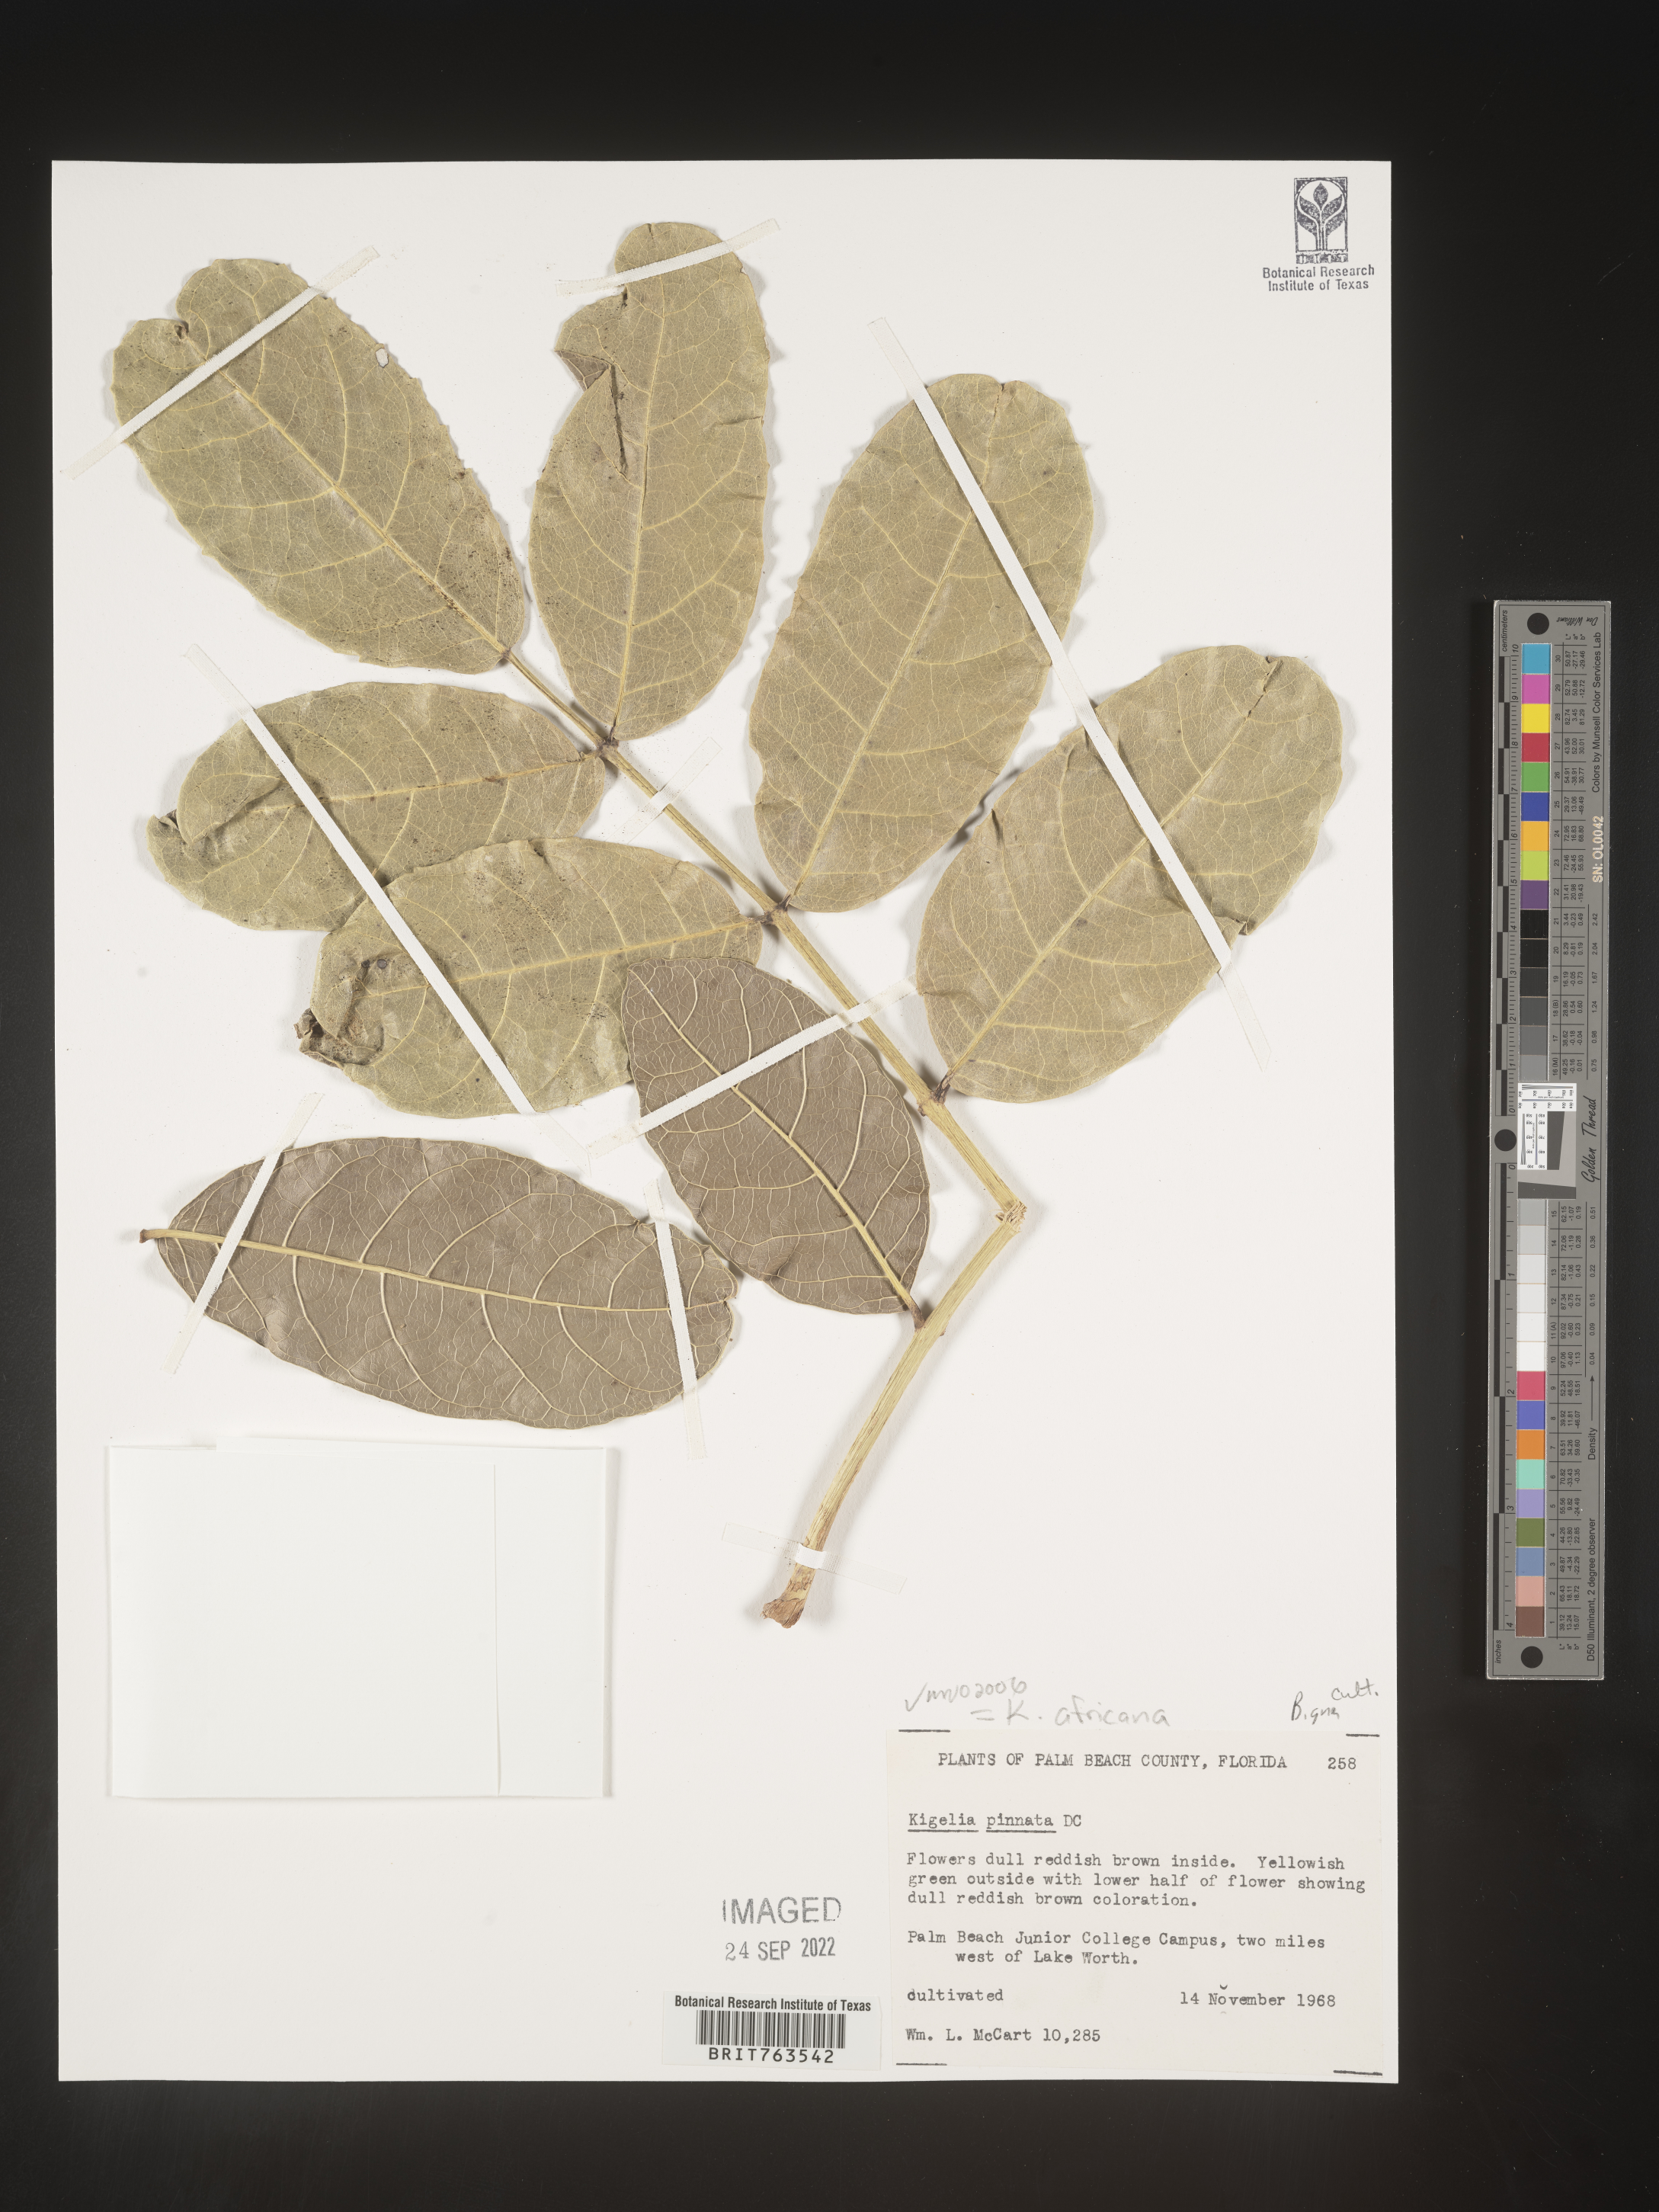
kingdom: Plantae
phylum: Tracheophyta
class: Magnoliopsida
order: Lamiales
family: Bignoniaceae
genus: Kigelia
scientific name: Kigelia
